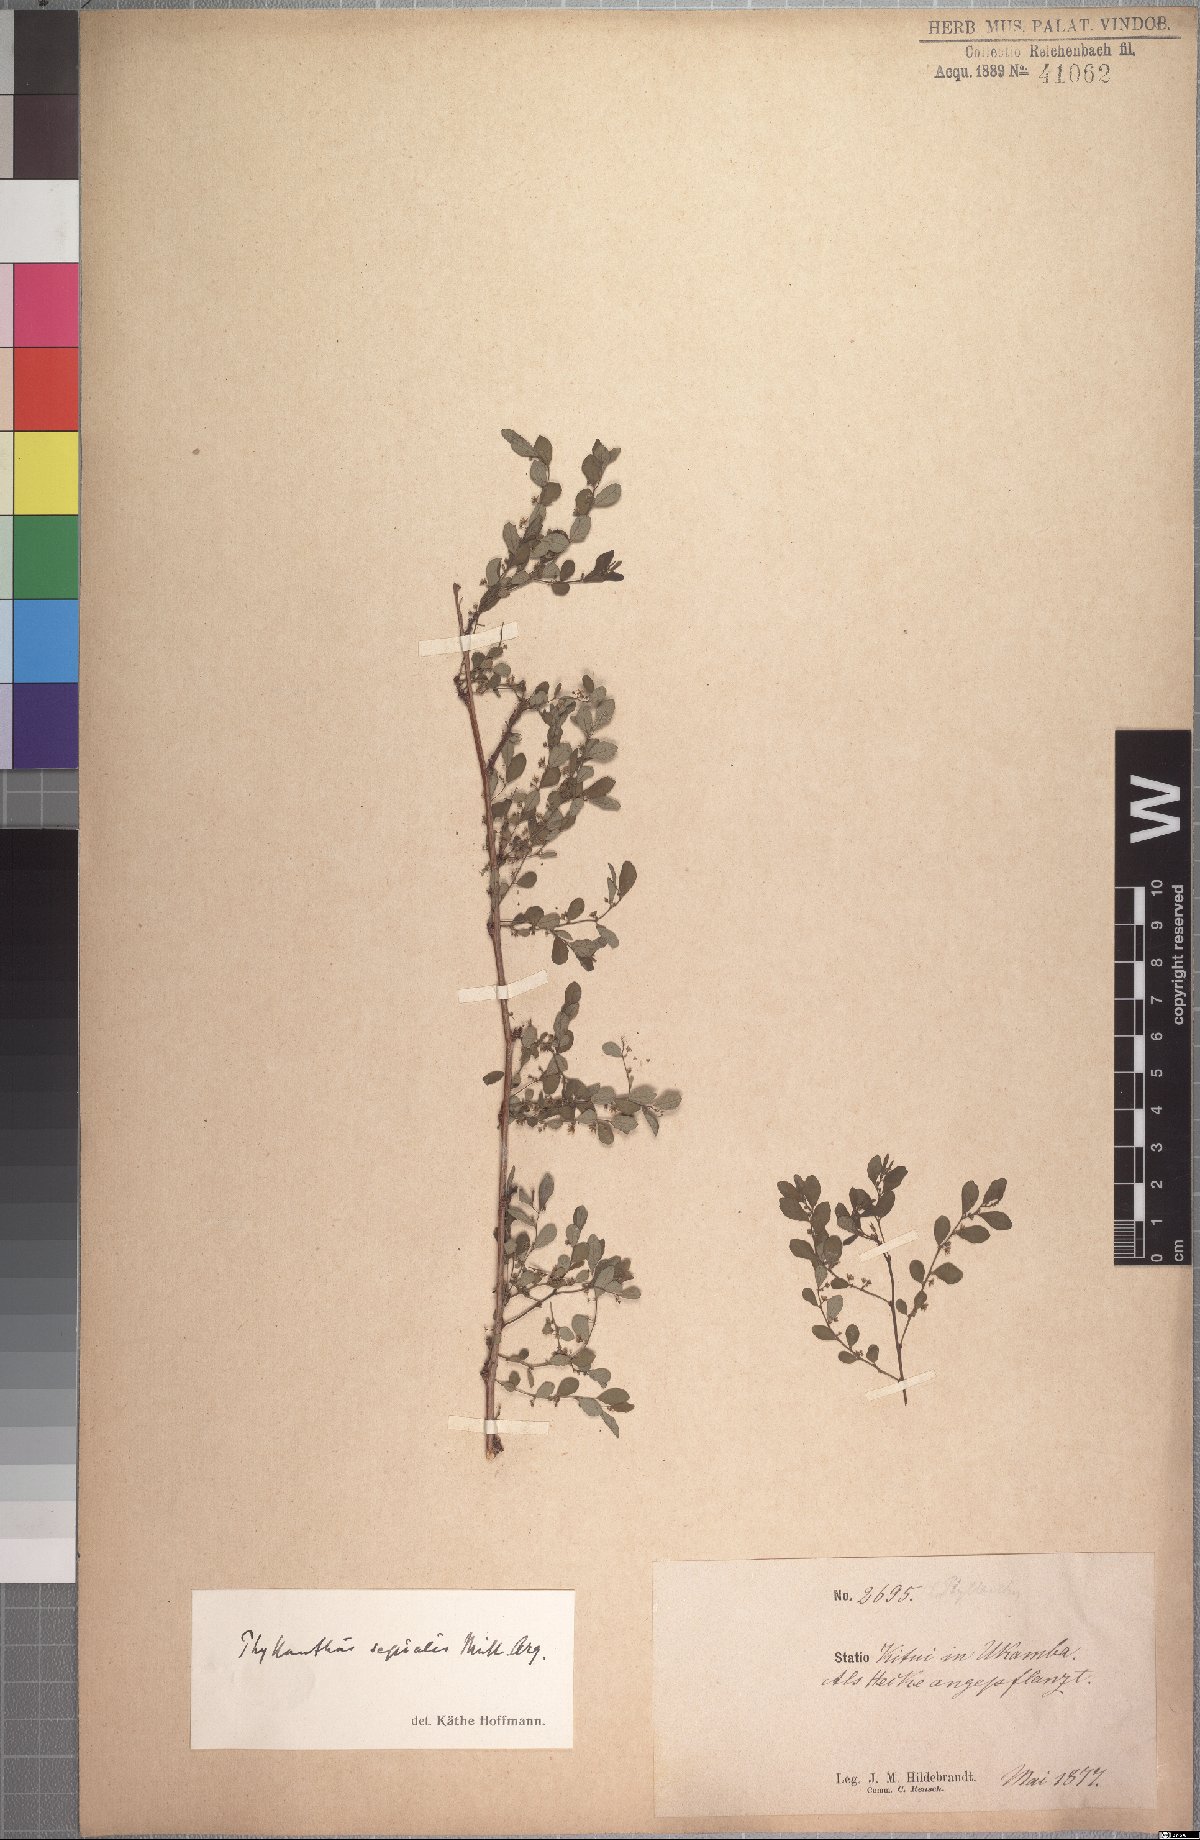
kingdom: Plantae
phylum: Tracheophyta
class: Magnoliopsida
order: Malpighiales
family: Phyllanthaceae
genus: Phyllanthus
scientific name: Phyllanthus sepialis
